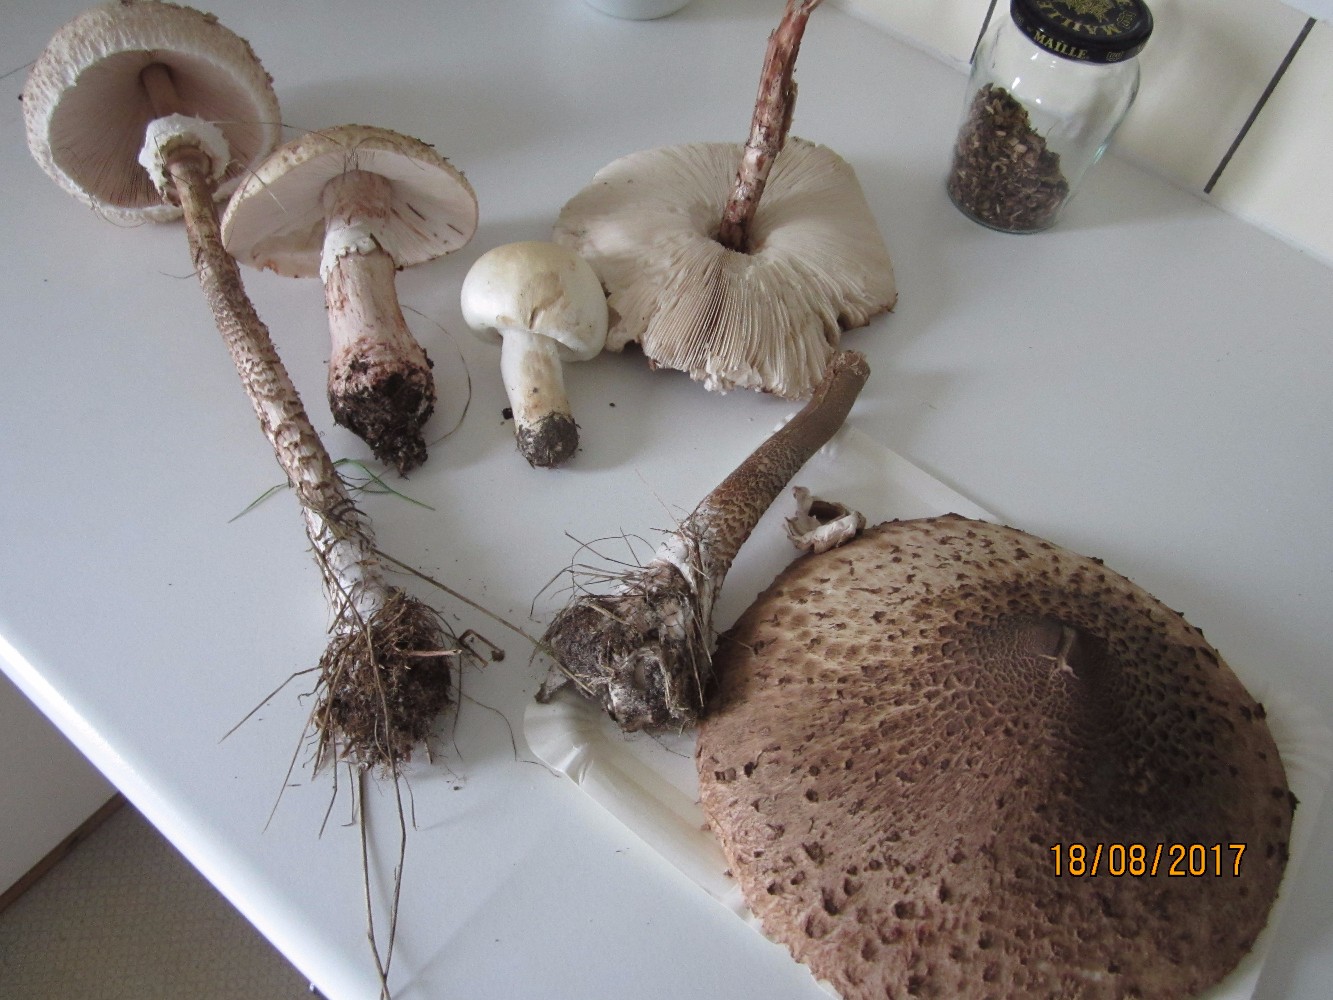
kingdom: Fungi
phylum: Basidiomycota
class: Agaricomycetes
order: Agaricales
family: Agaricaceae
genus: Macrolepiota
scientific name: Macrolepiota procera
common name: stor kæmpeparasolhat
